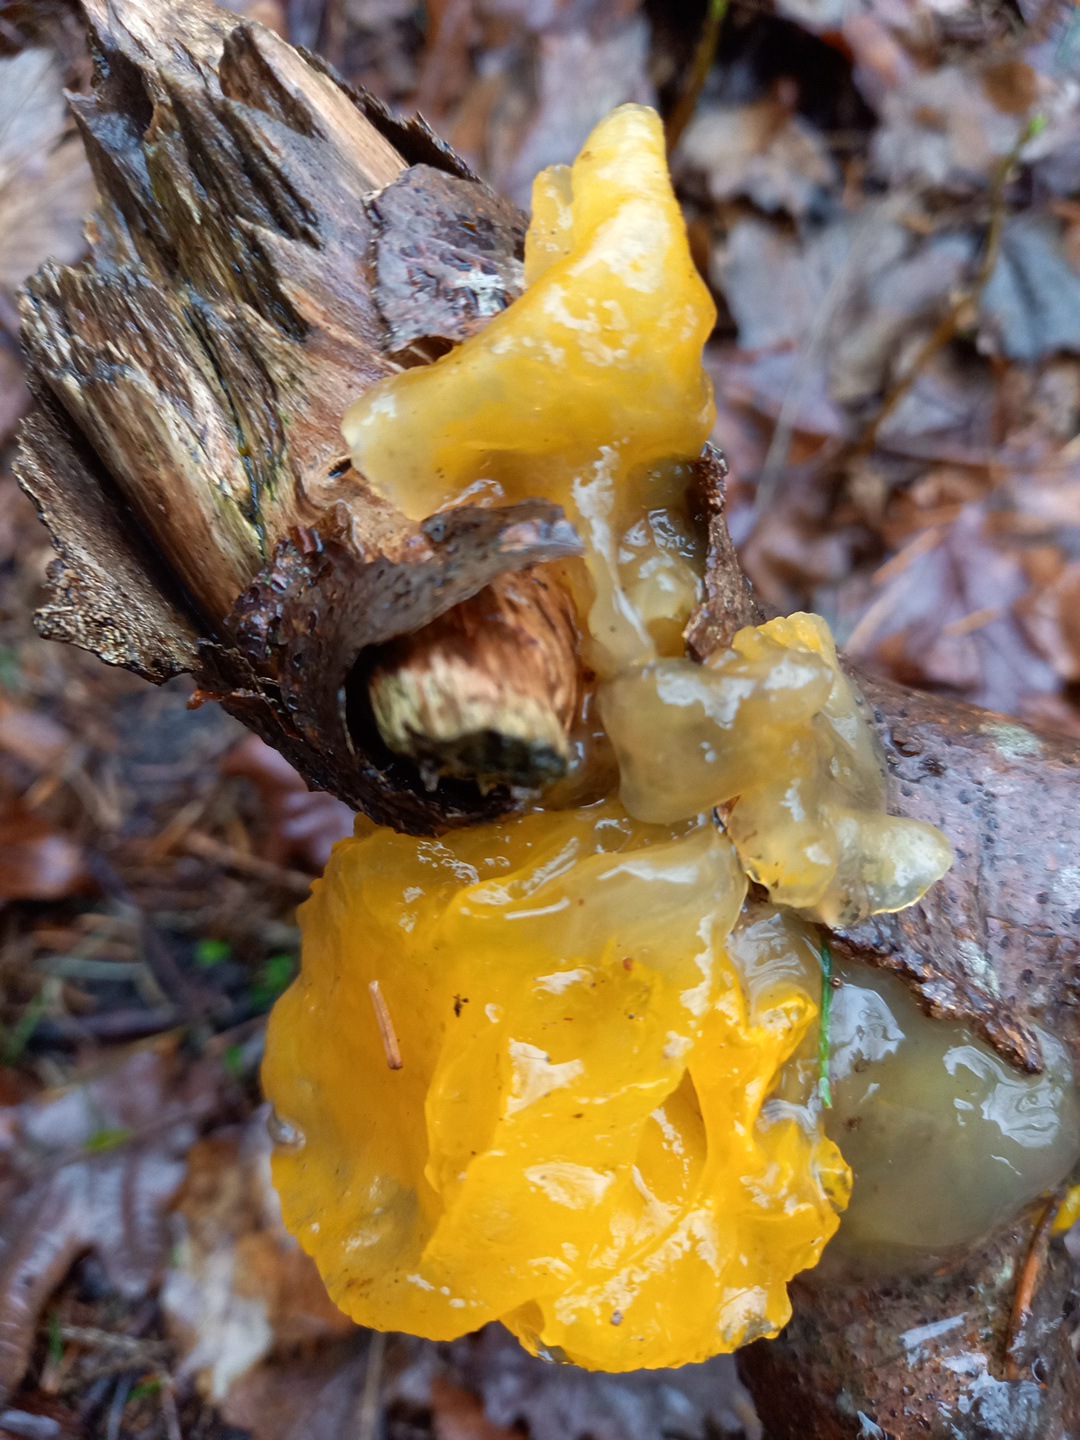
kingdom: Fungi
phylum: Basidiomycota
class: Tremellomycetes
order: Tremellales
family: Tremellaceae
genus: Tremella
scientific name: Tremella mesenterica
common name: gul bævresvamp
